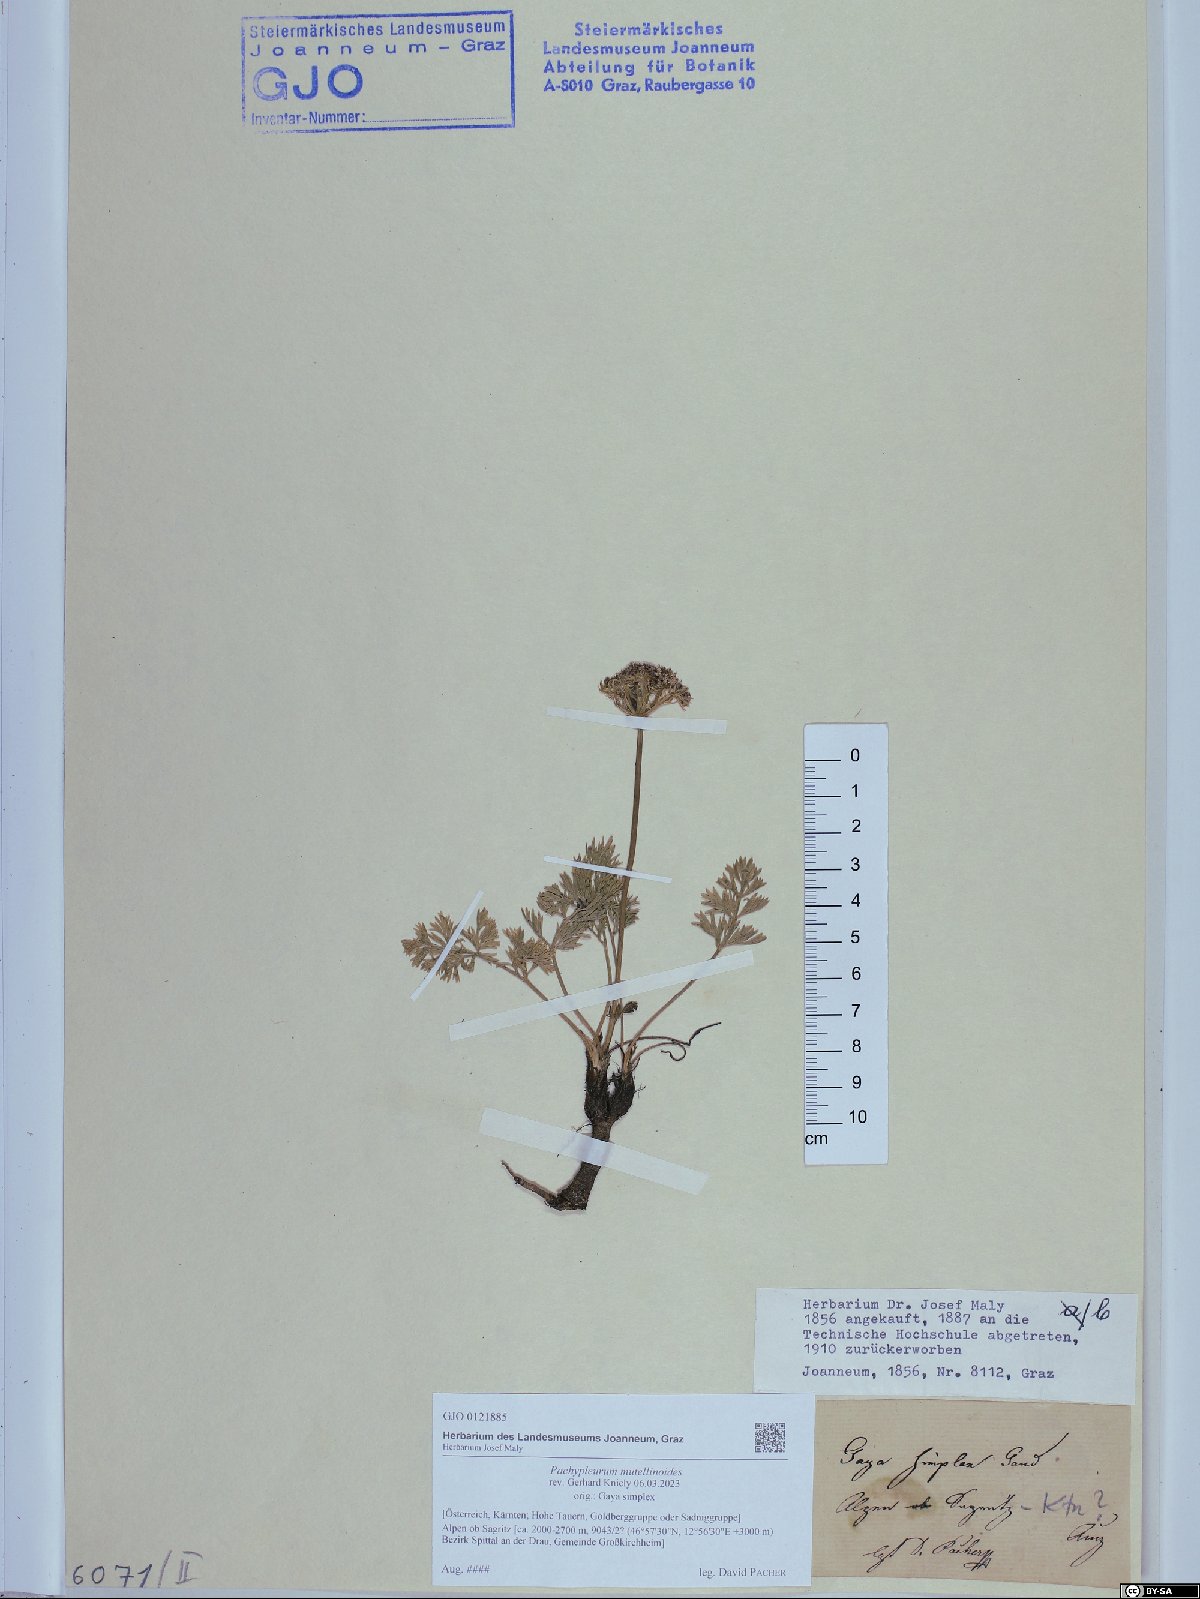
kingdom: Plantae
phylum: Tracheophyta
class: Magnoliopsida
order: Apiales
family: Apiaceae
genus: Pachypleurum
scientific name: Pachypleurum mutellinoides
